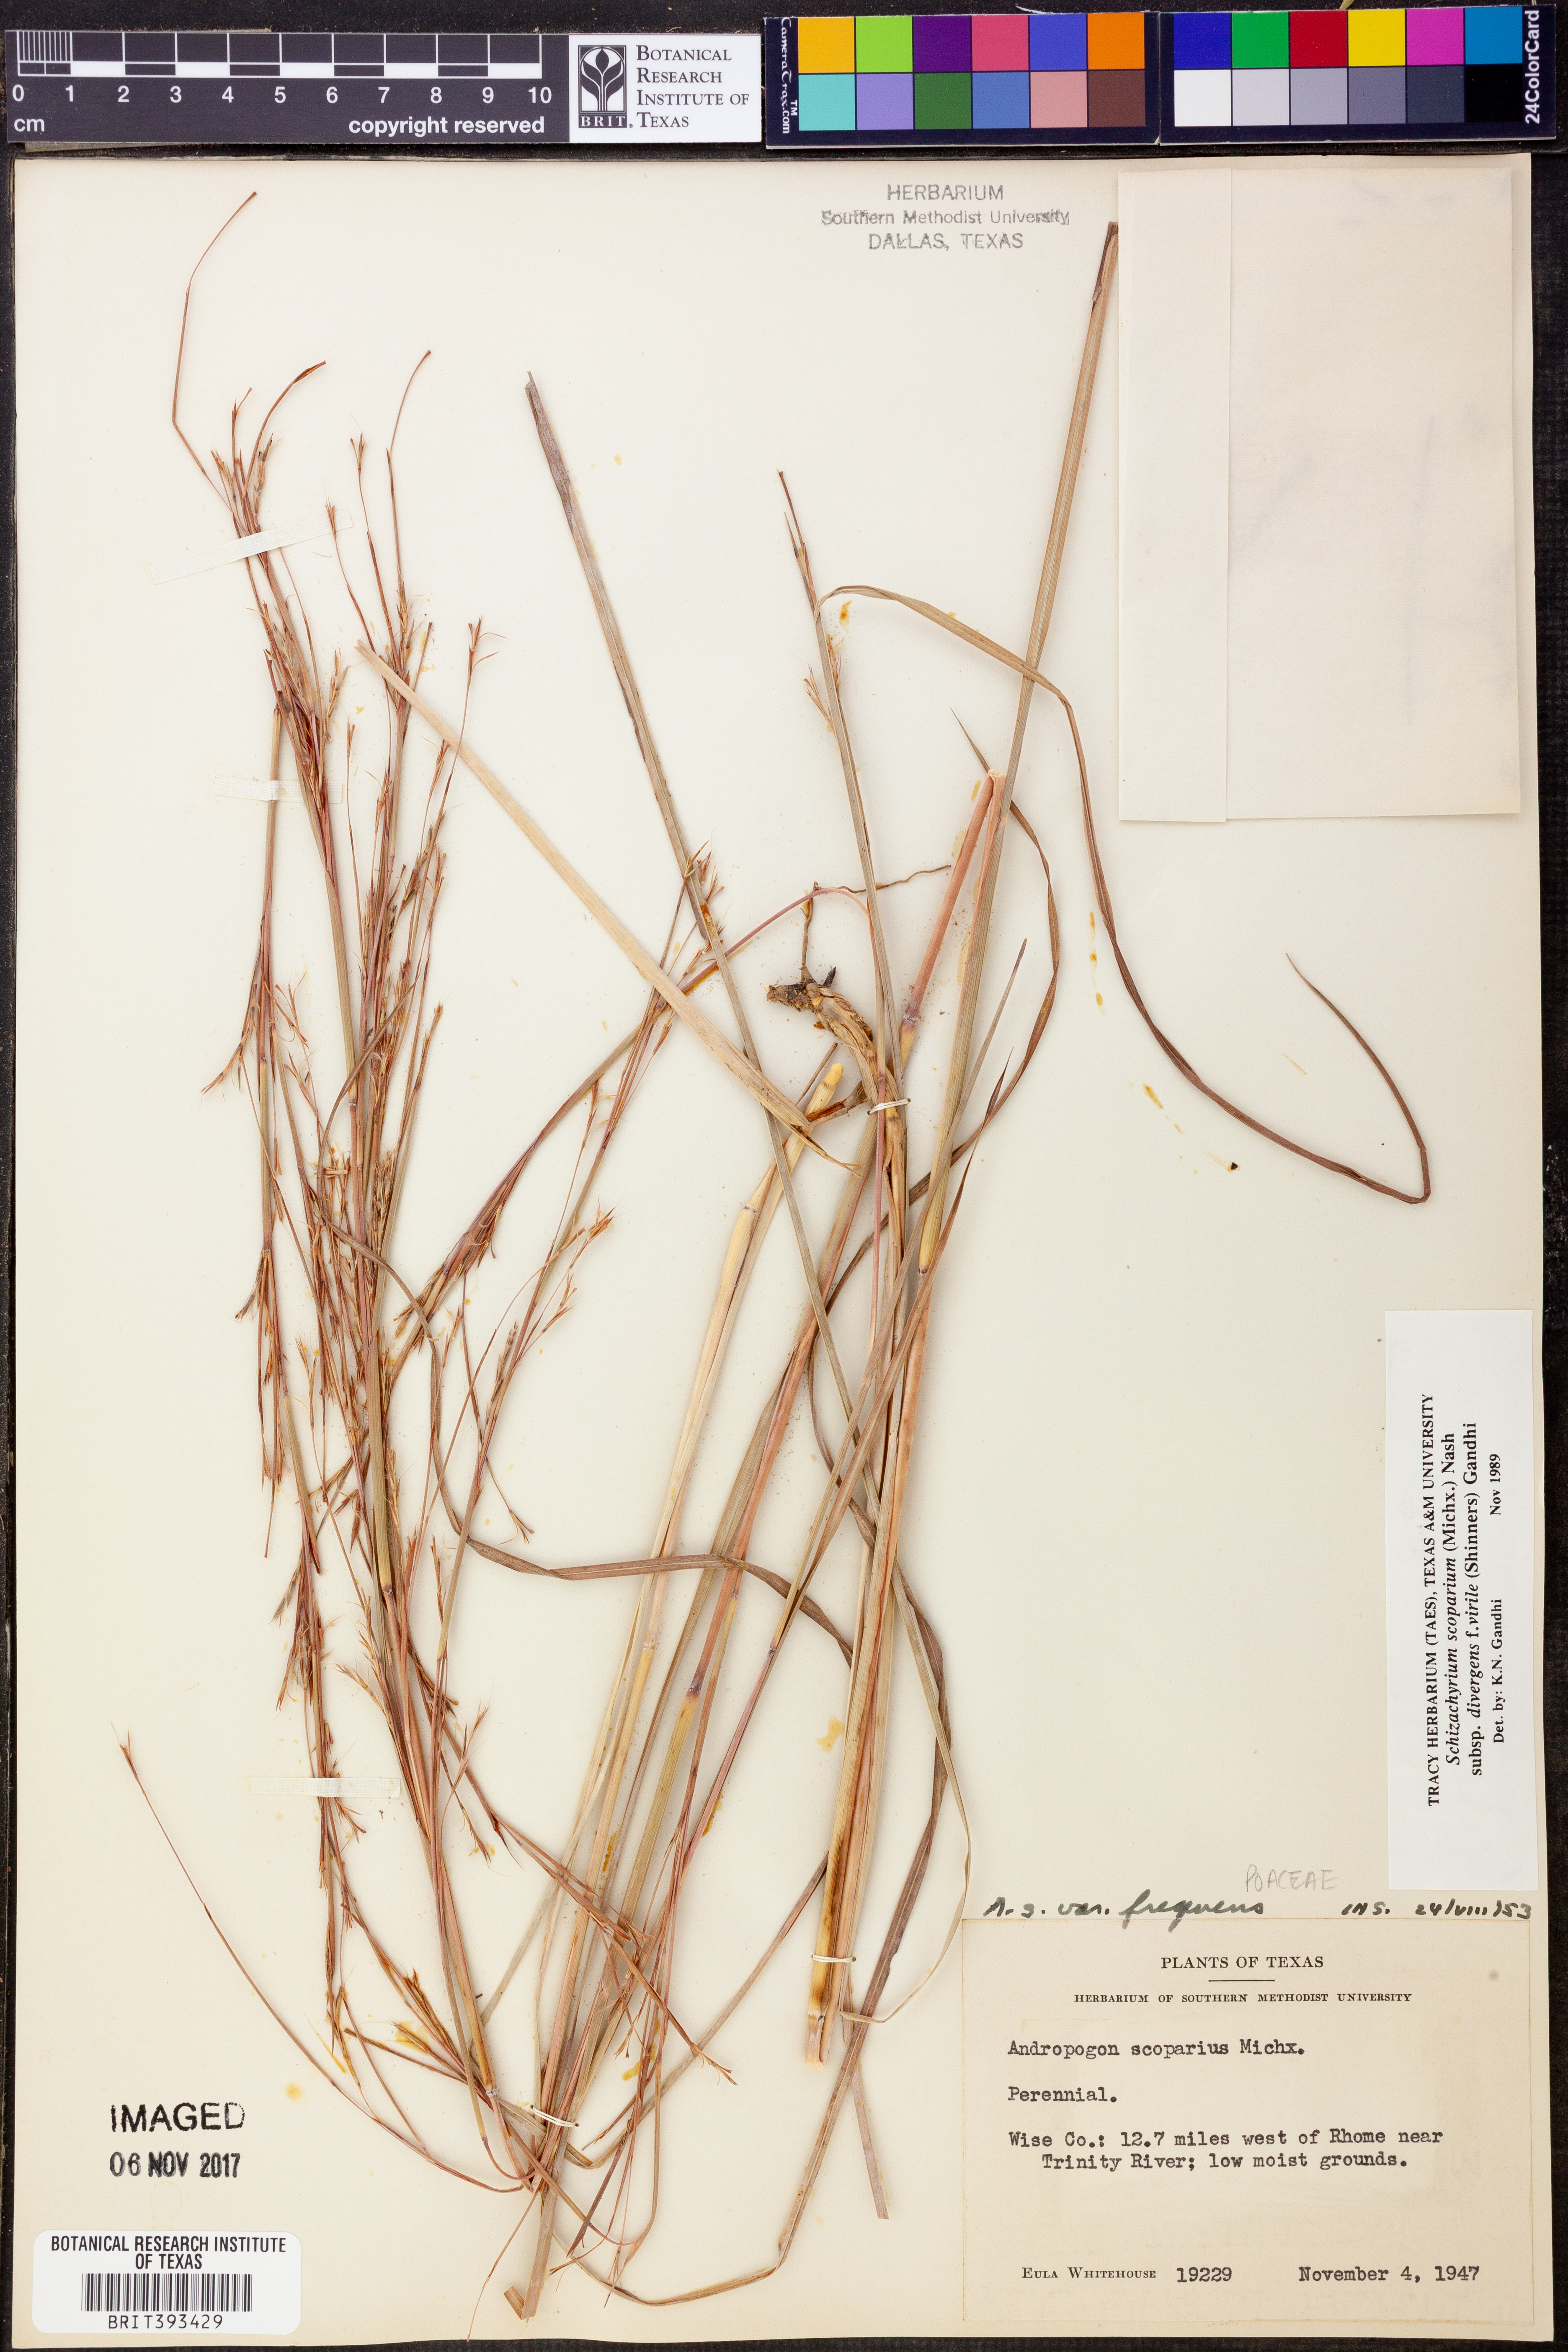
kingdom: Plantae
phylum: Tracheophyta
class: Liliopsida
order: Poales
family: Poaceae
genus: Schizachyrium
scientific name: Schizachyrium scoparium
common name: Little bluestem
